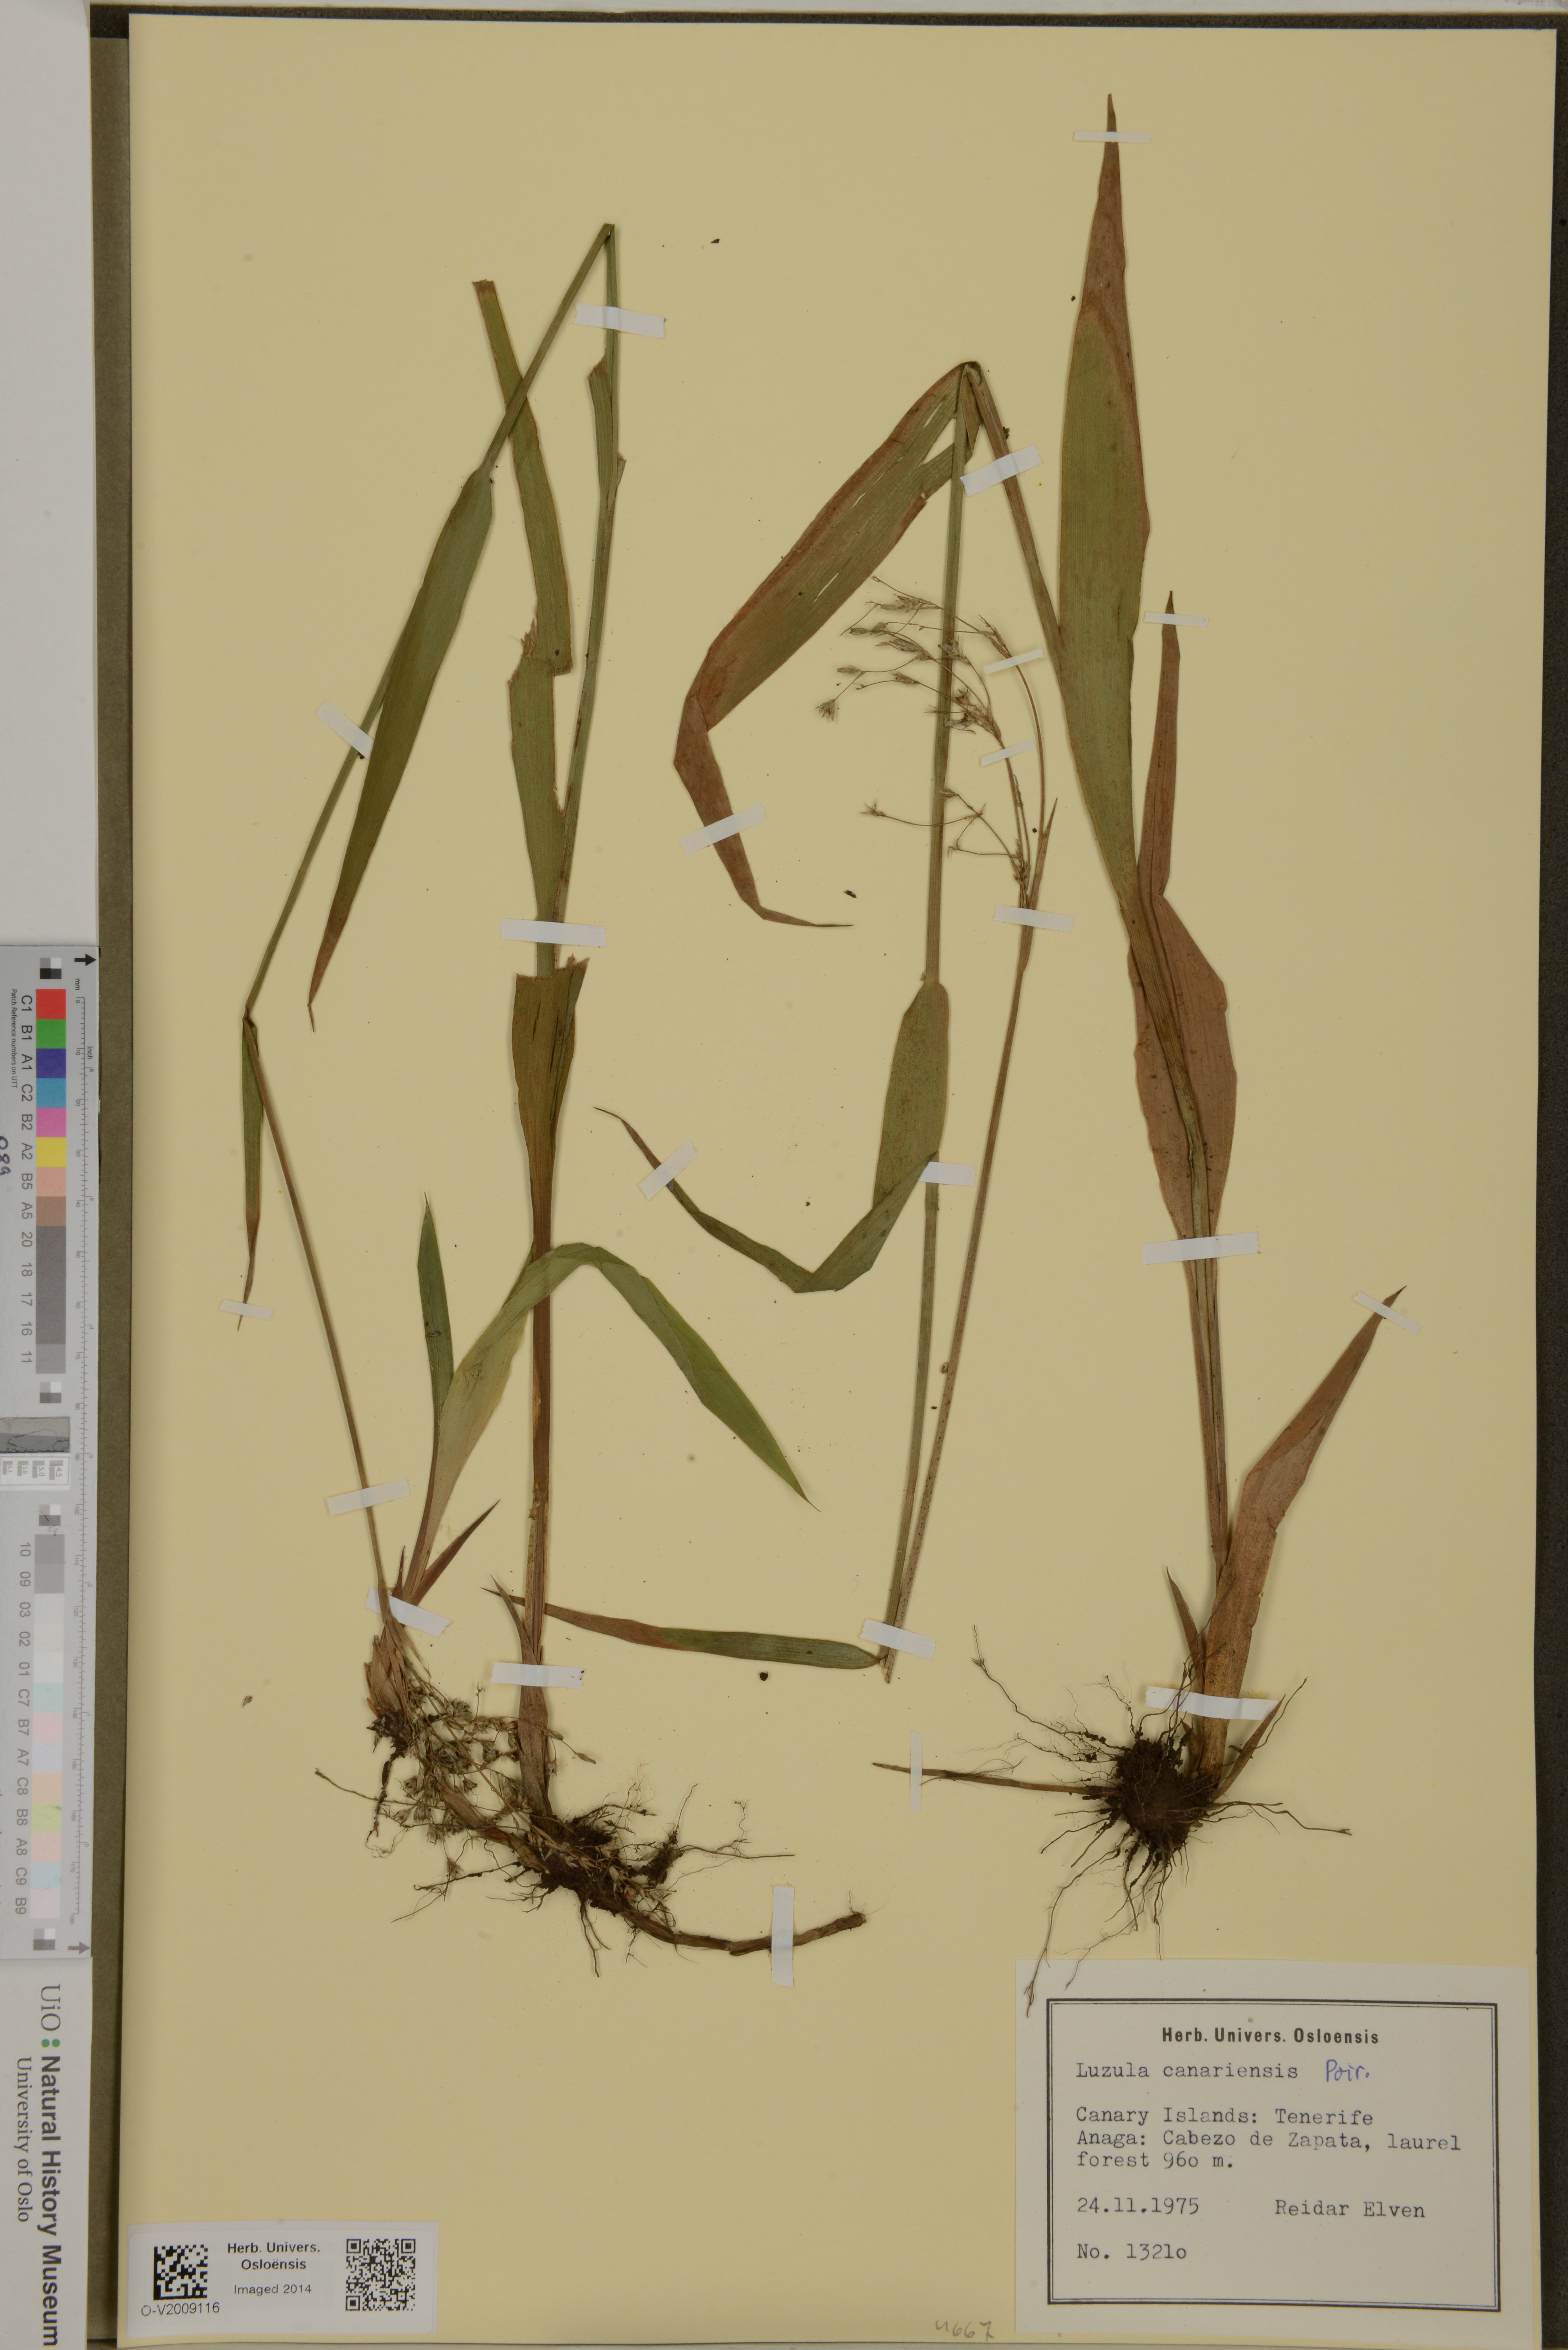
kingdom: Plantae
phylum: Tracheophyta
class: Liliopsida
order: Poales
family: Juncaceae
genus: Luzula
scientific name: Luzula canariensis
